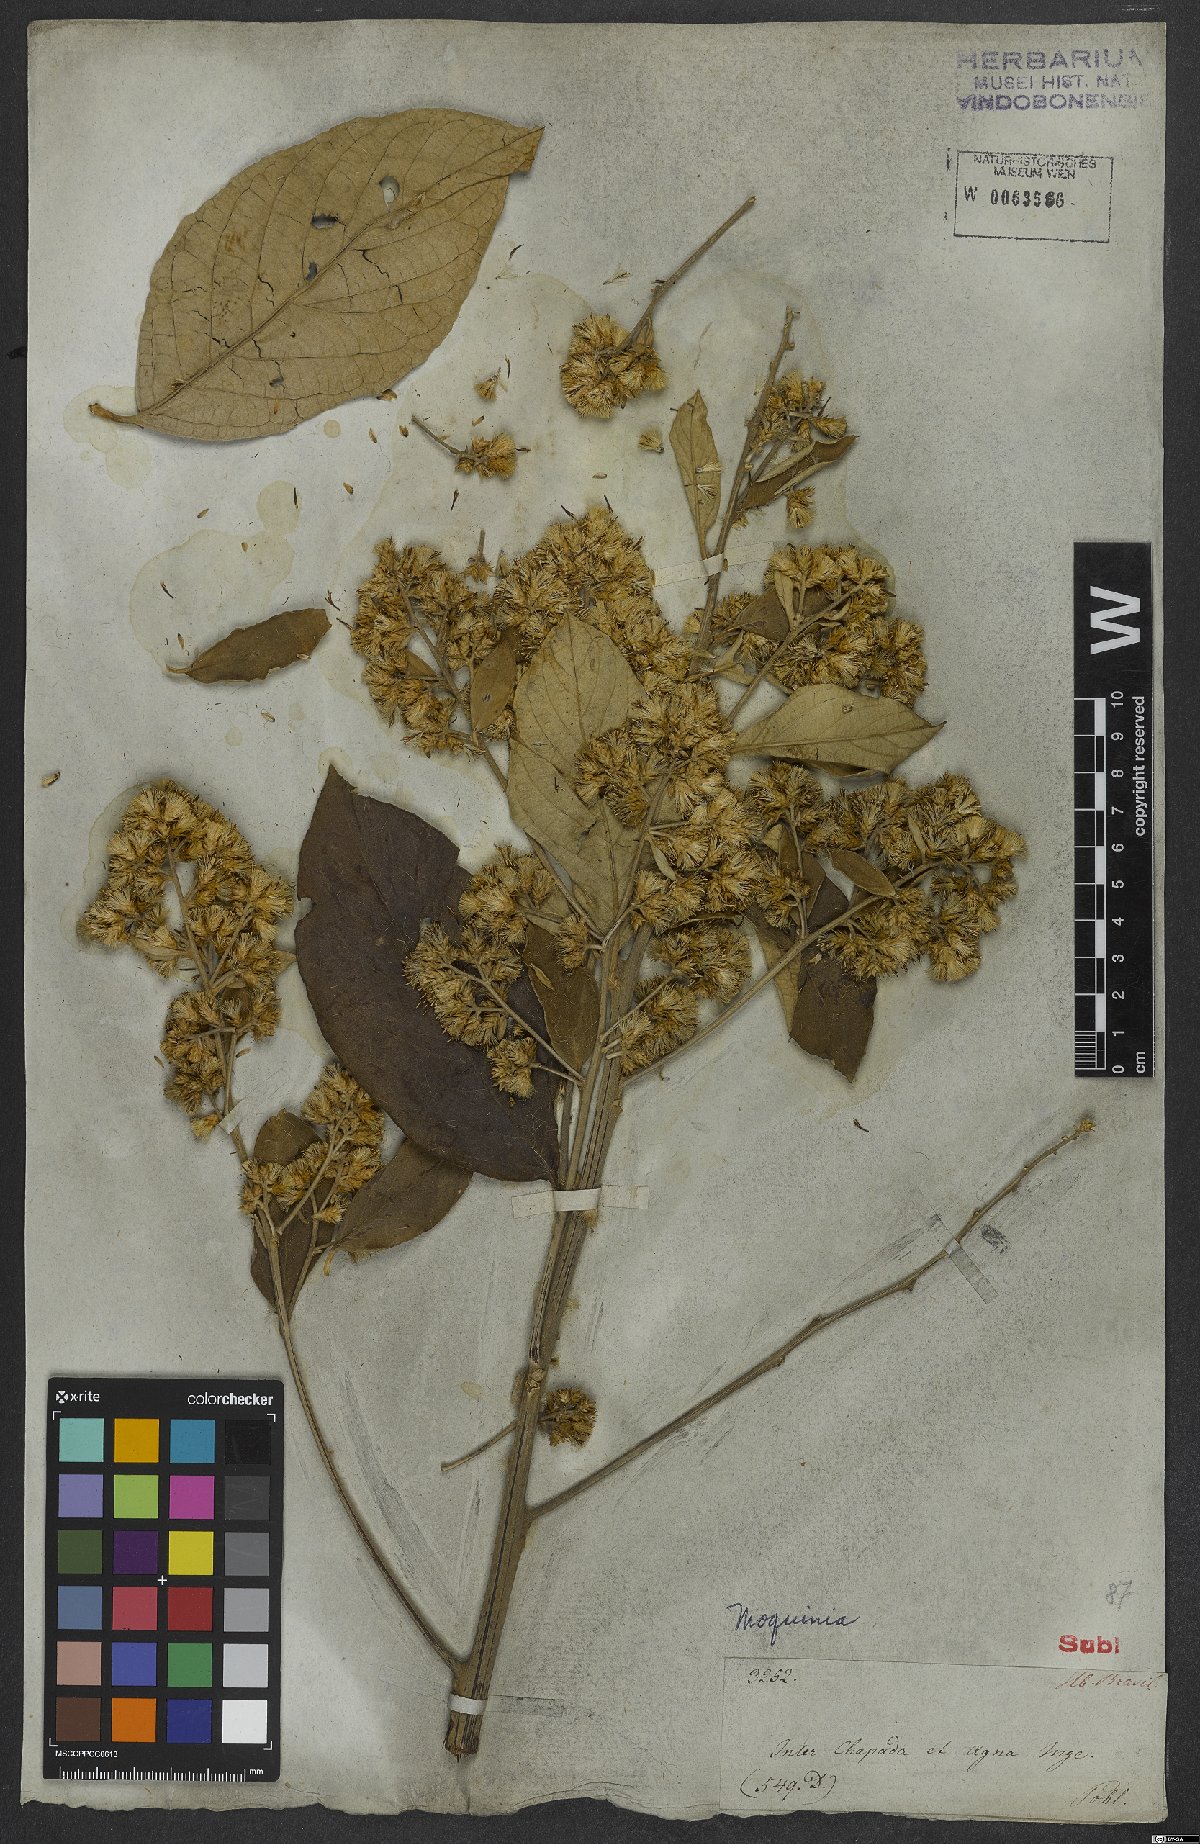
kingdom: Plantae
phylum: Tracheophyta
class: Magnoliopsida
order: Asterales
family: Asteraceae
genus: Moquinia
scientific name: Moquinia
